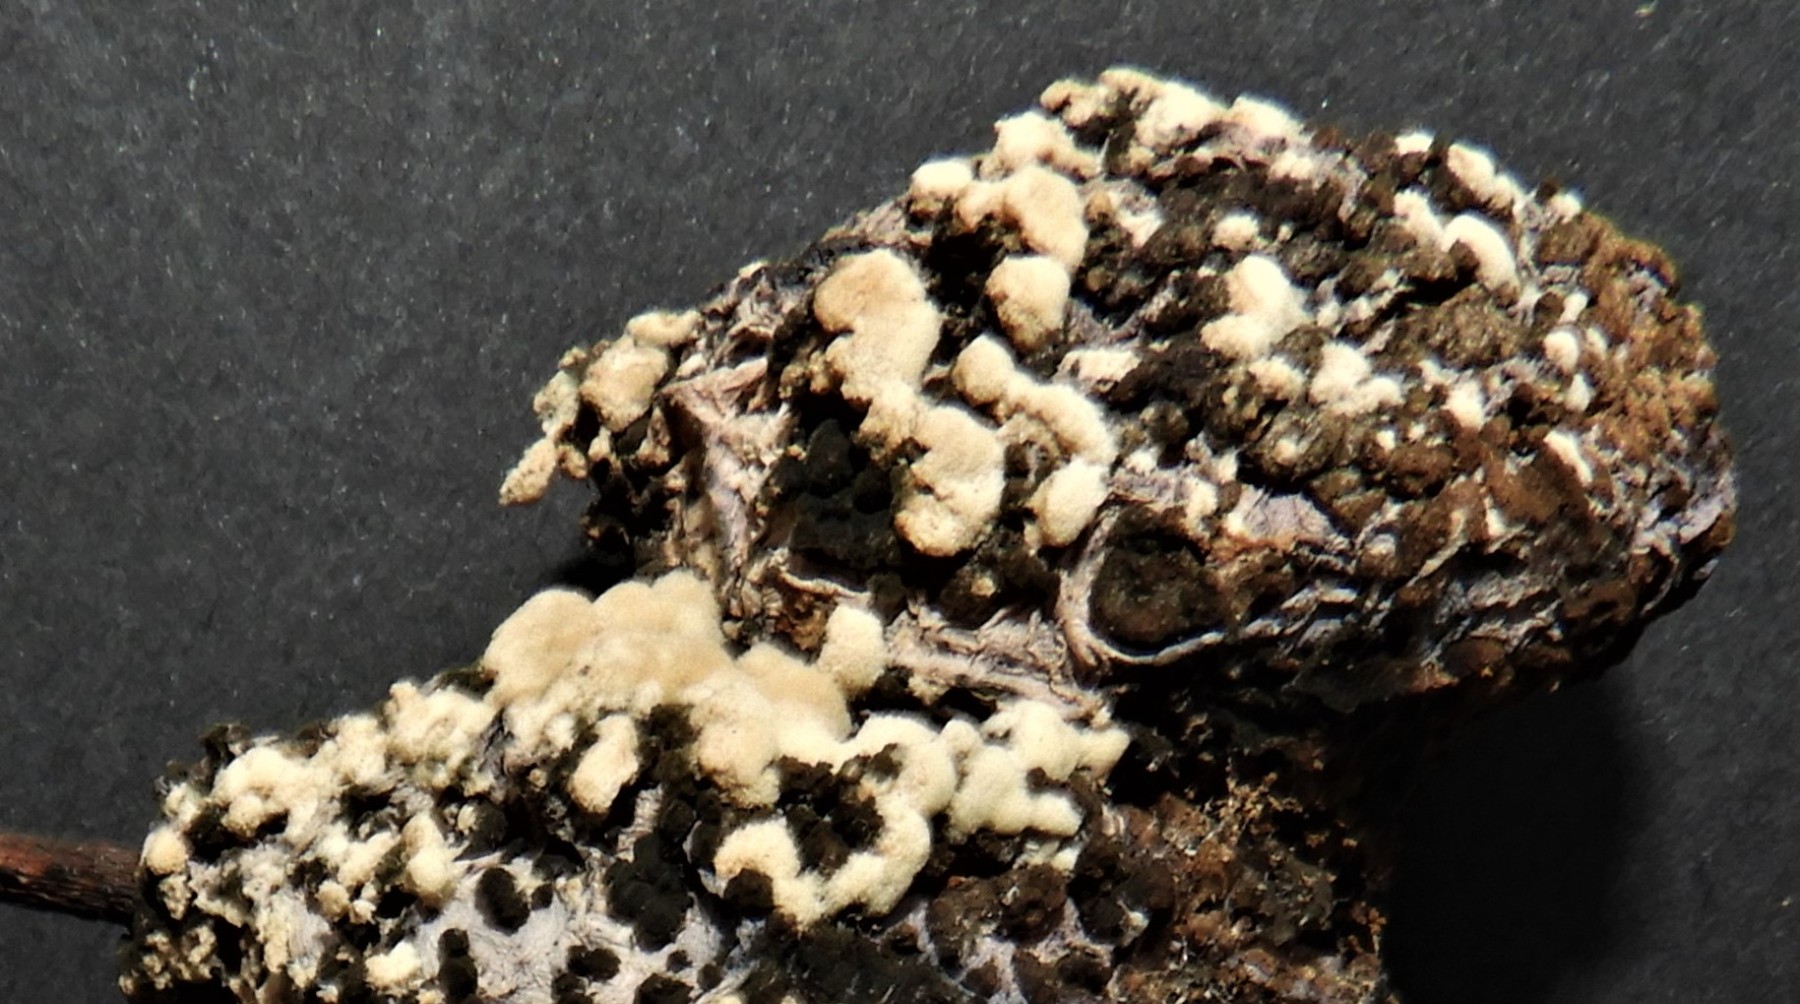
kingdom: Fungi
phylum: Ascomycota
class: Leotiomycetes
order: Helotiales
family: Sclerotiniaceae
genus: Monilinia
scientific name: Monilinia laxa
